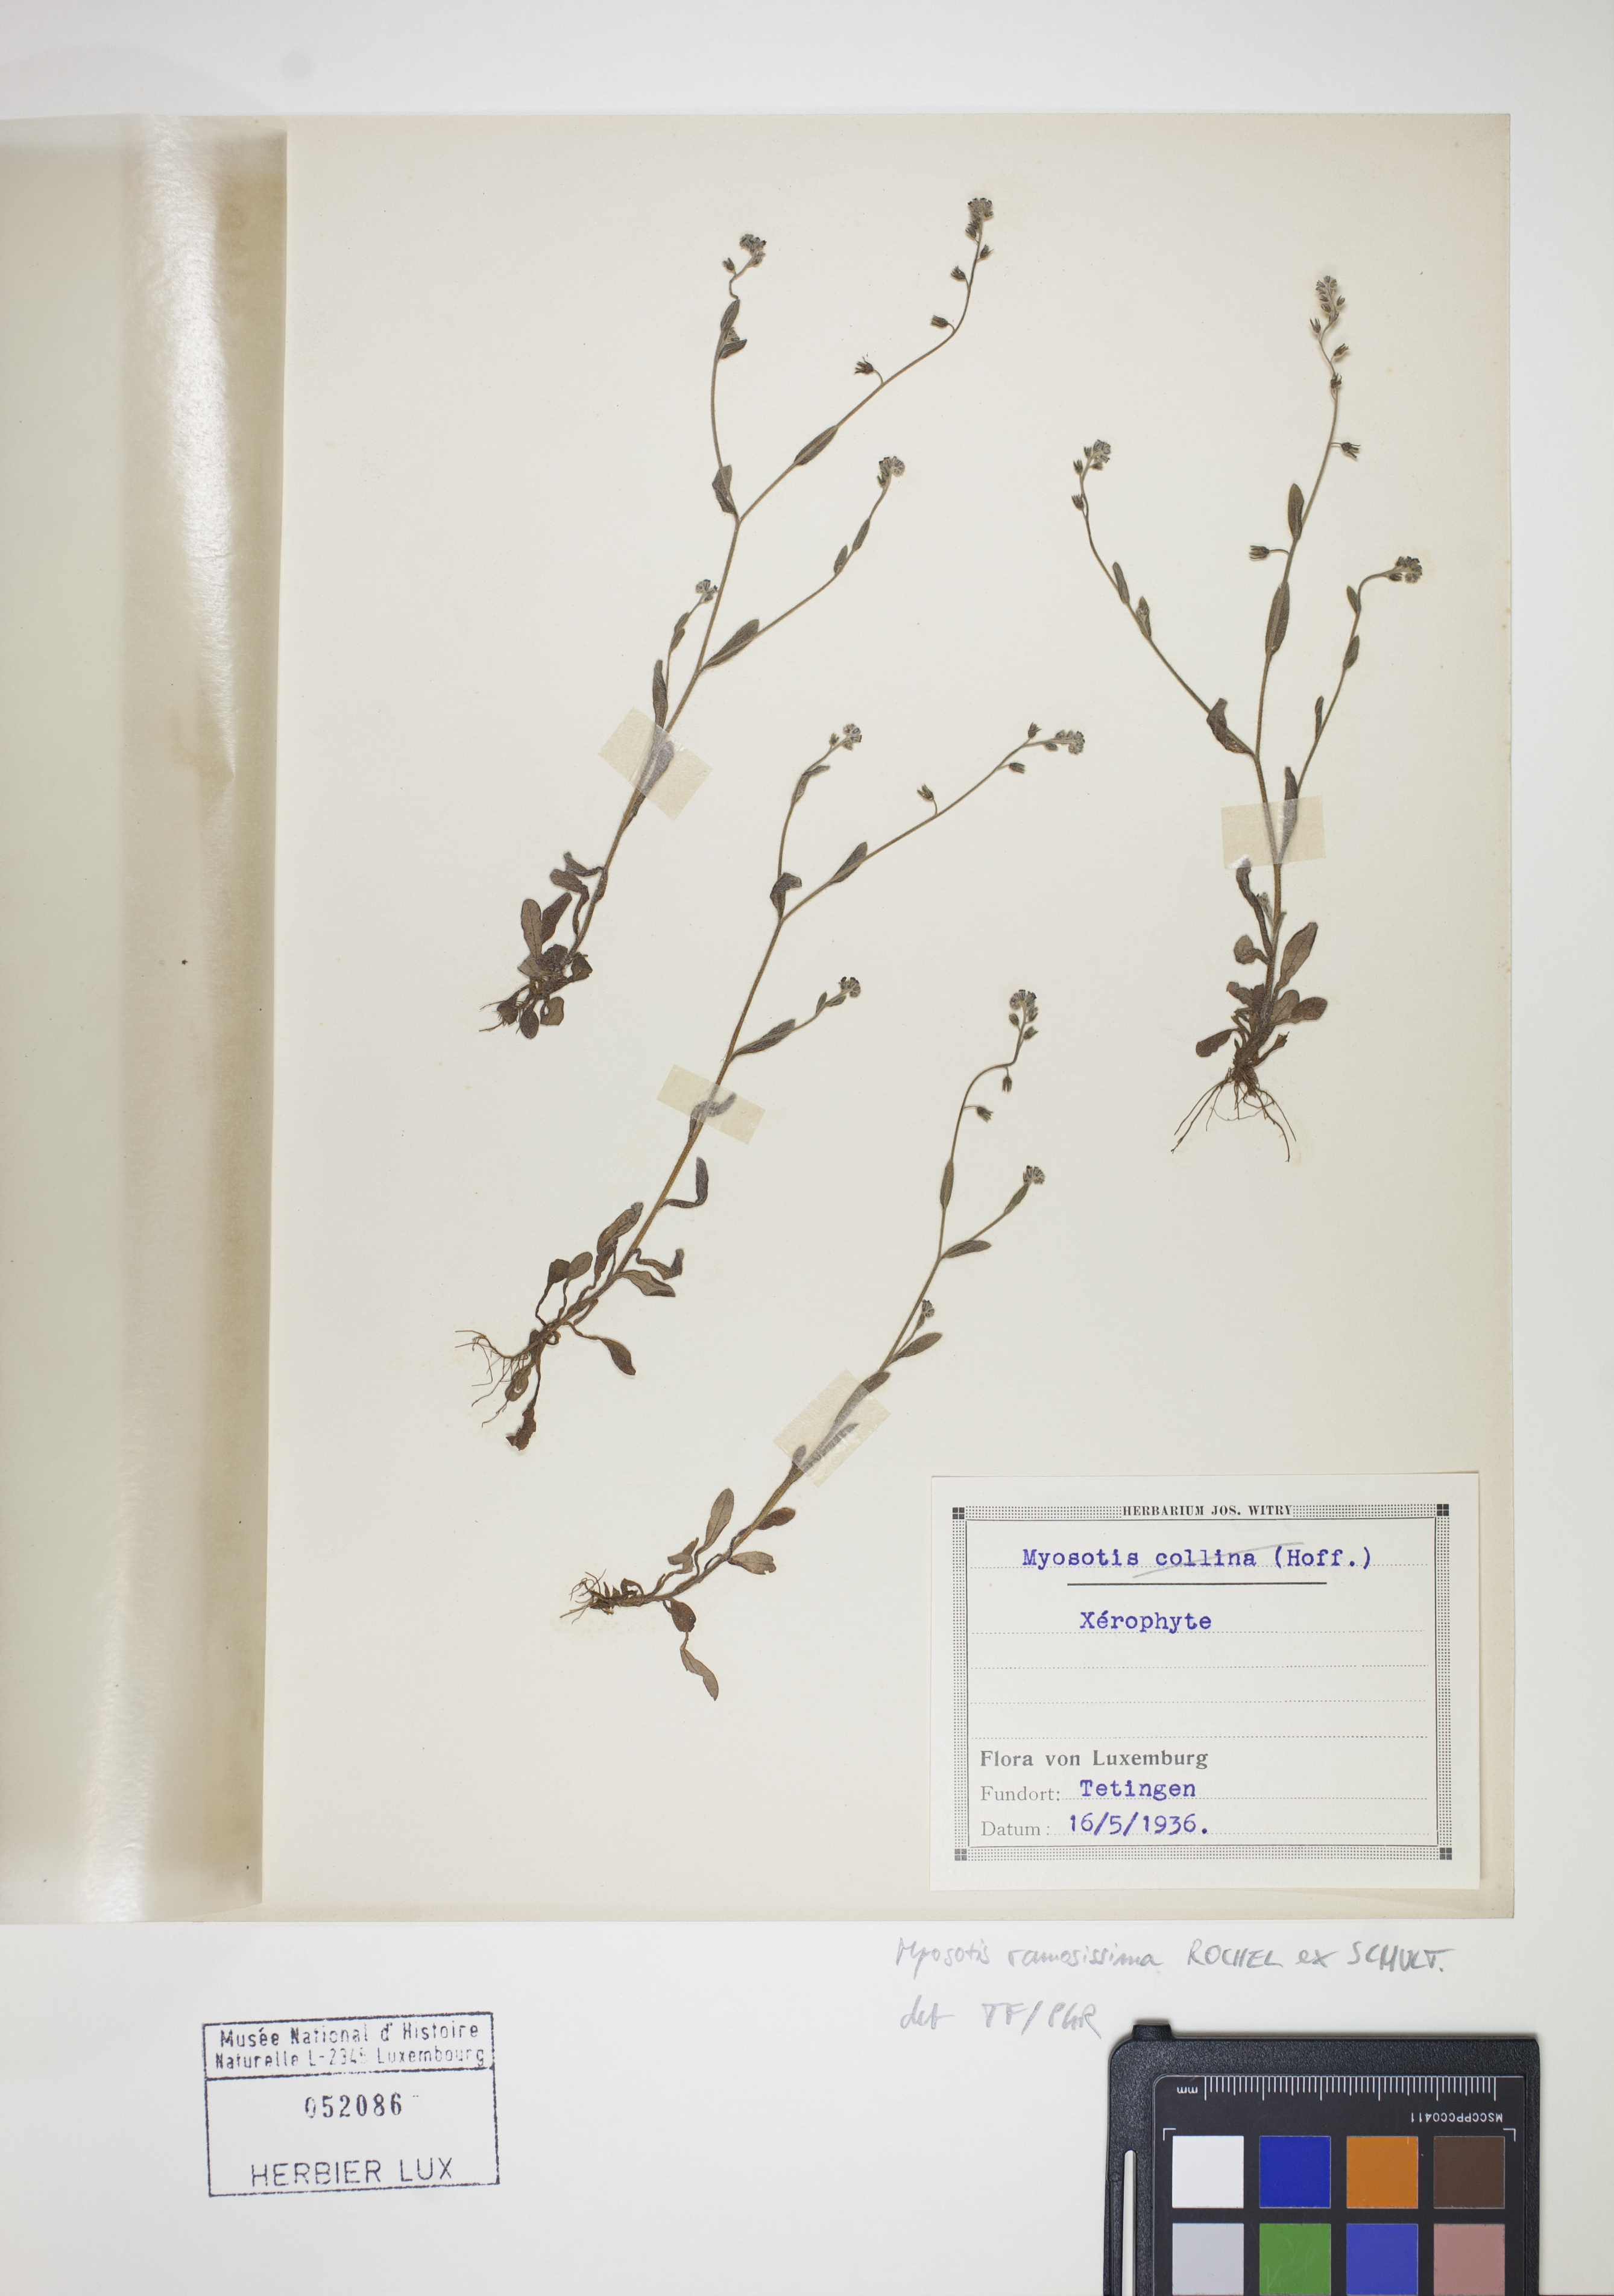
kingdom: Plantae
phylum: Tracheophyta
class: Magnoliopsida
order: Boraginales
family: Boraginaceae
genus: Myosotis
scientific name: Myosotis ramosissima
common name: Early forget-me-not
